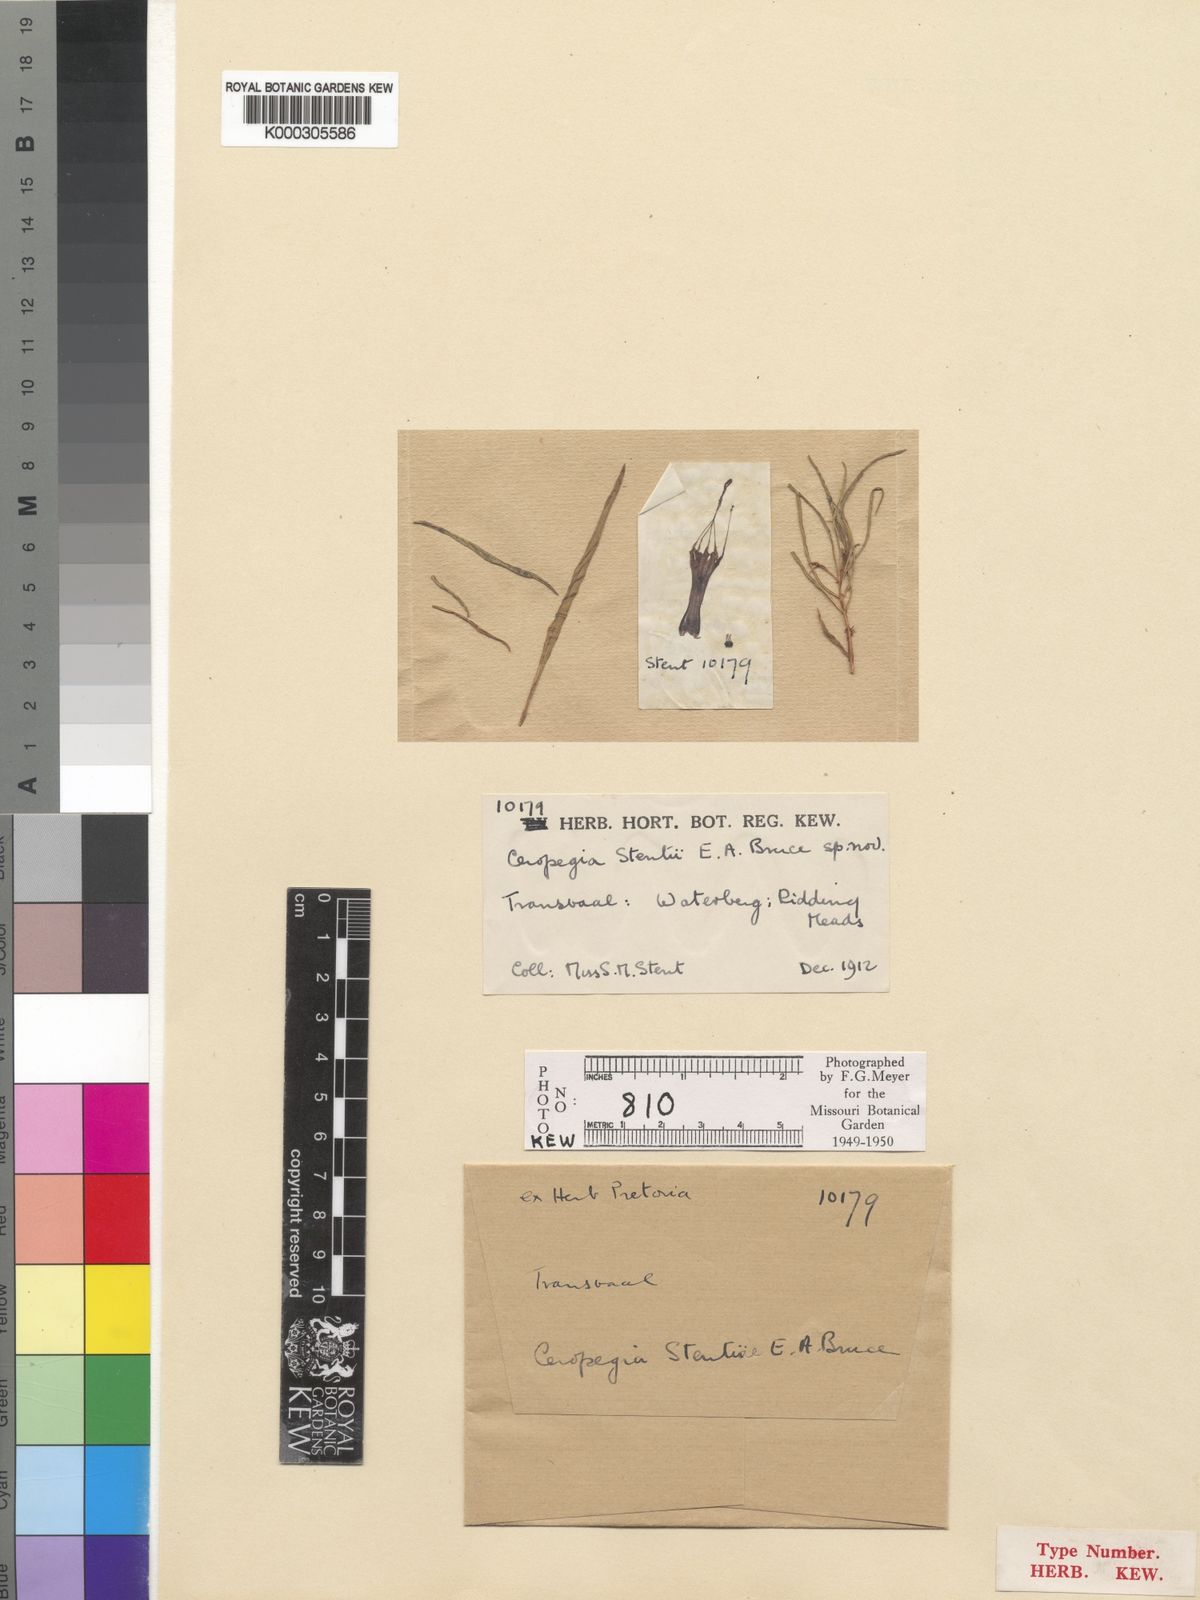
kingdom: Plantae
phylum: Tracheophyta
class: Magnoliopsida
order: Gentianales
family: Apocynaceae
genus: Ceropegia
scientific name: Ceropegia stentiae
